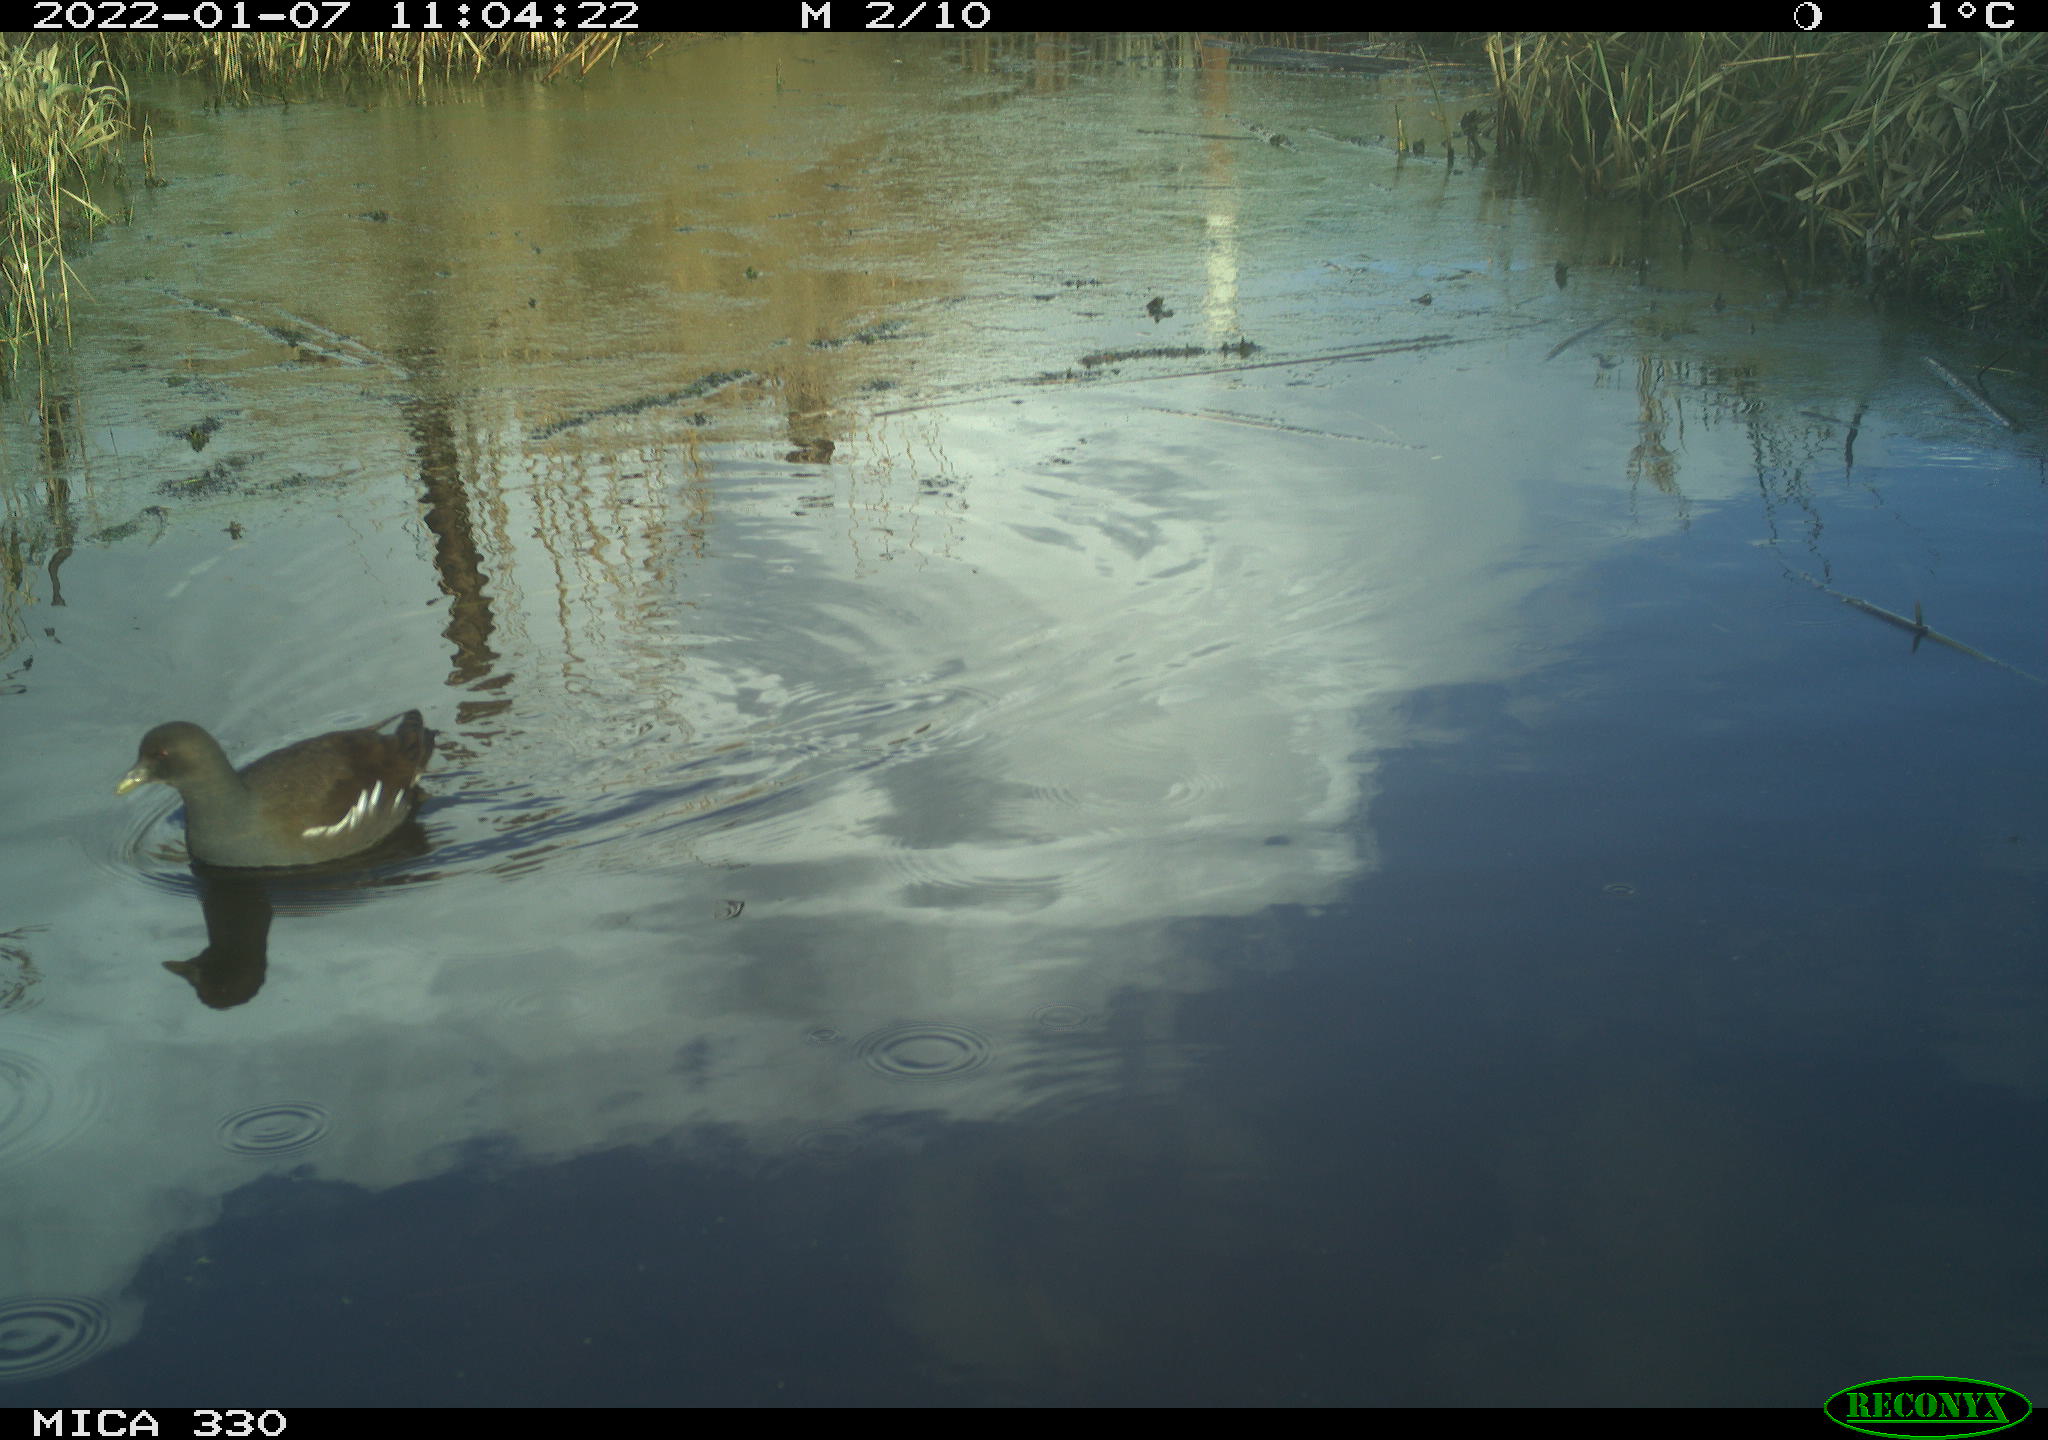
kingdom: Animalia
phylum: Chordata
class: Aves
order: Gruiformes
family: Rallidae
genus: Gallinula
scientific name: Gallinula chloropus
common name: Common moorhen
